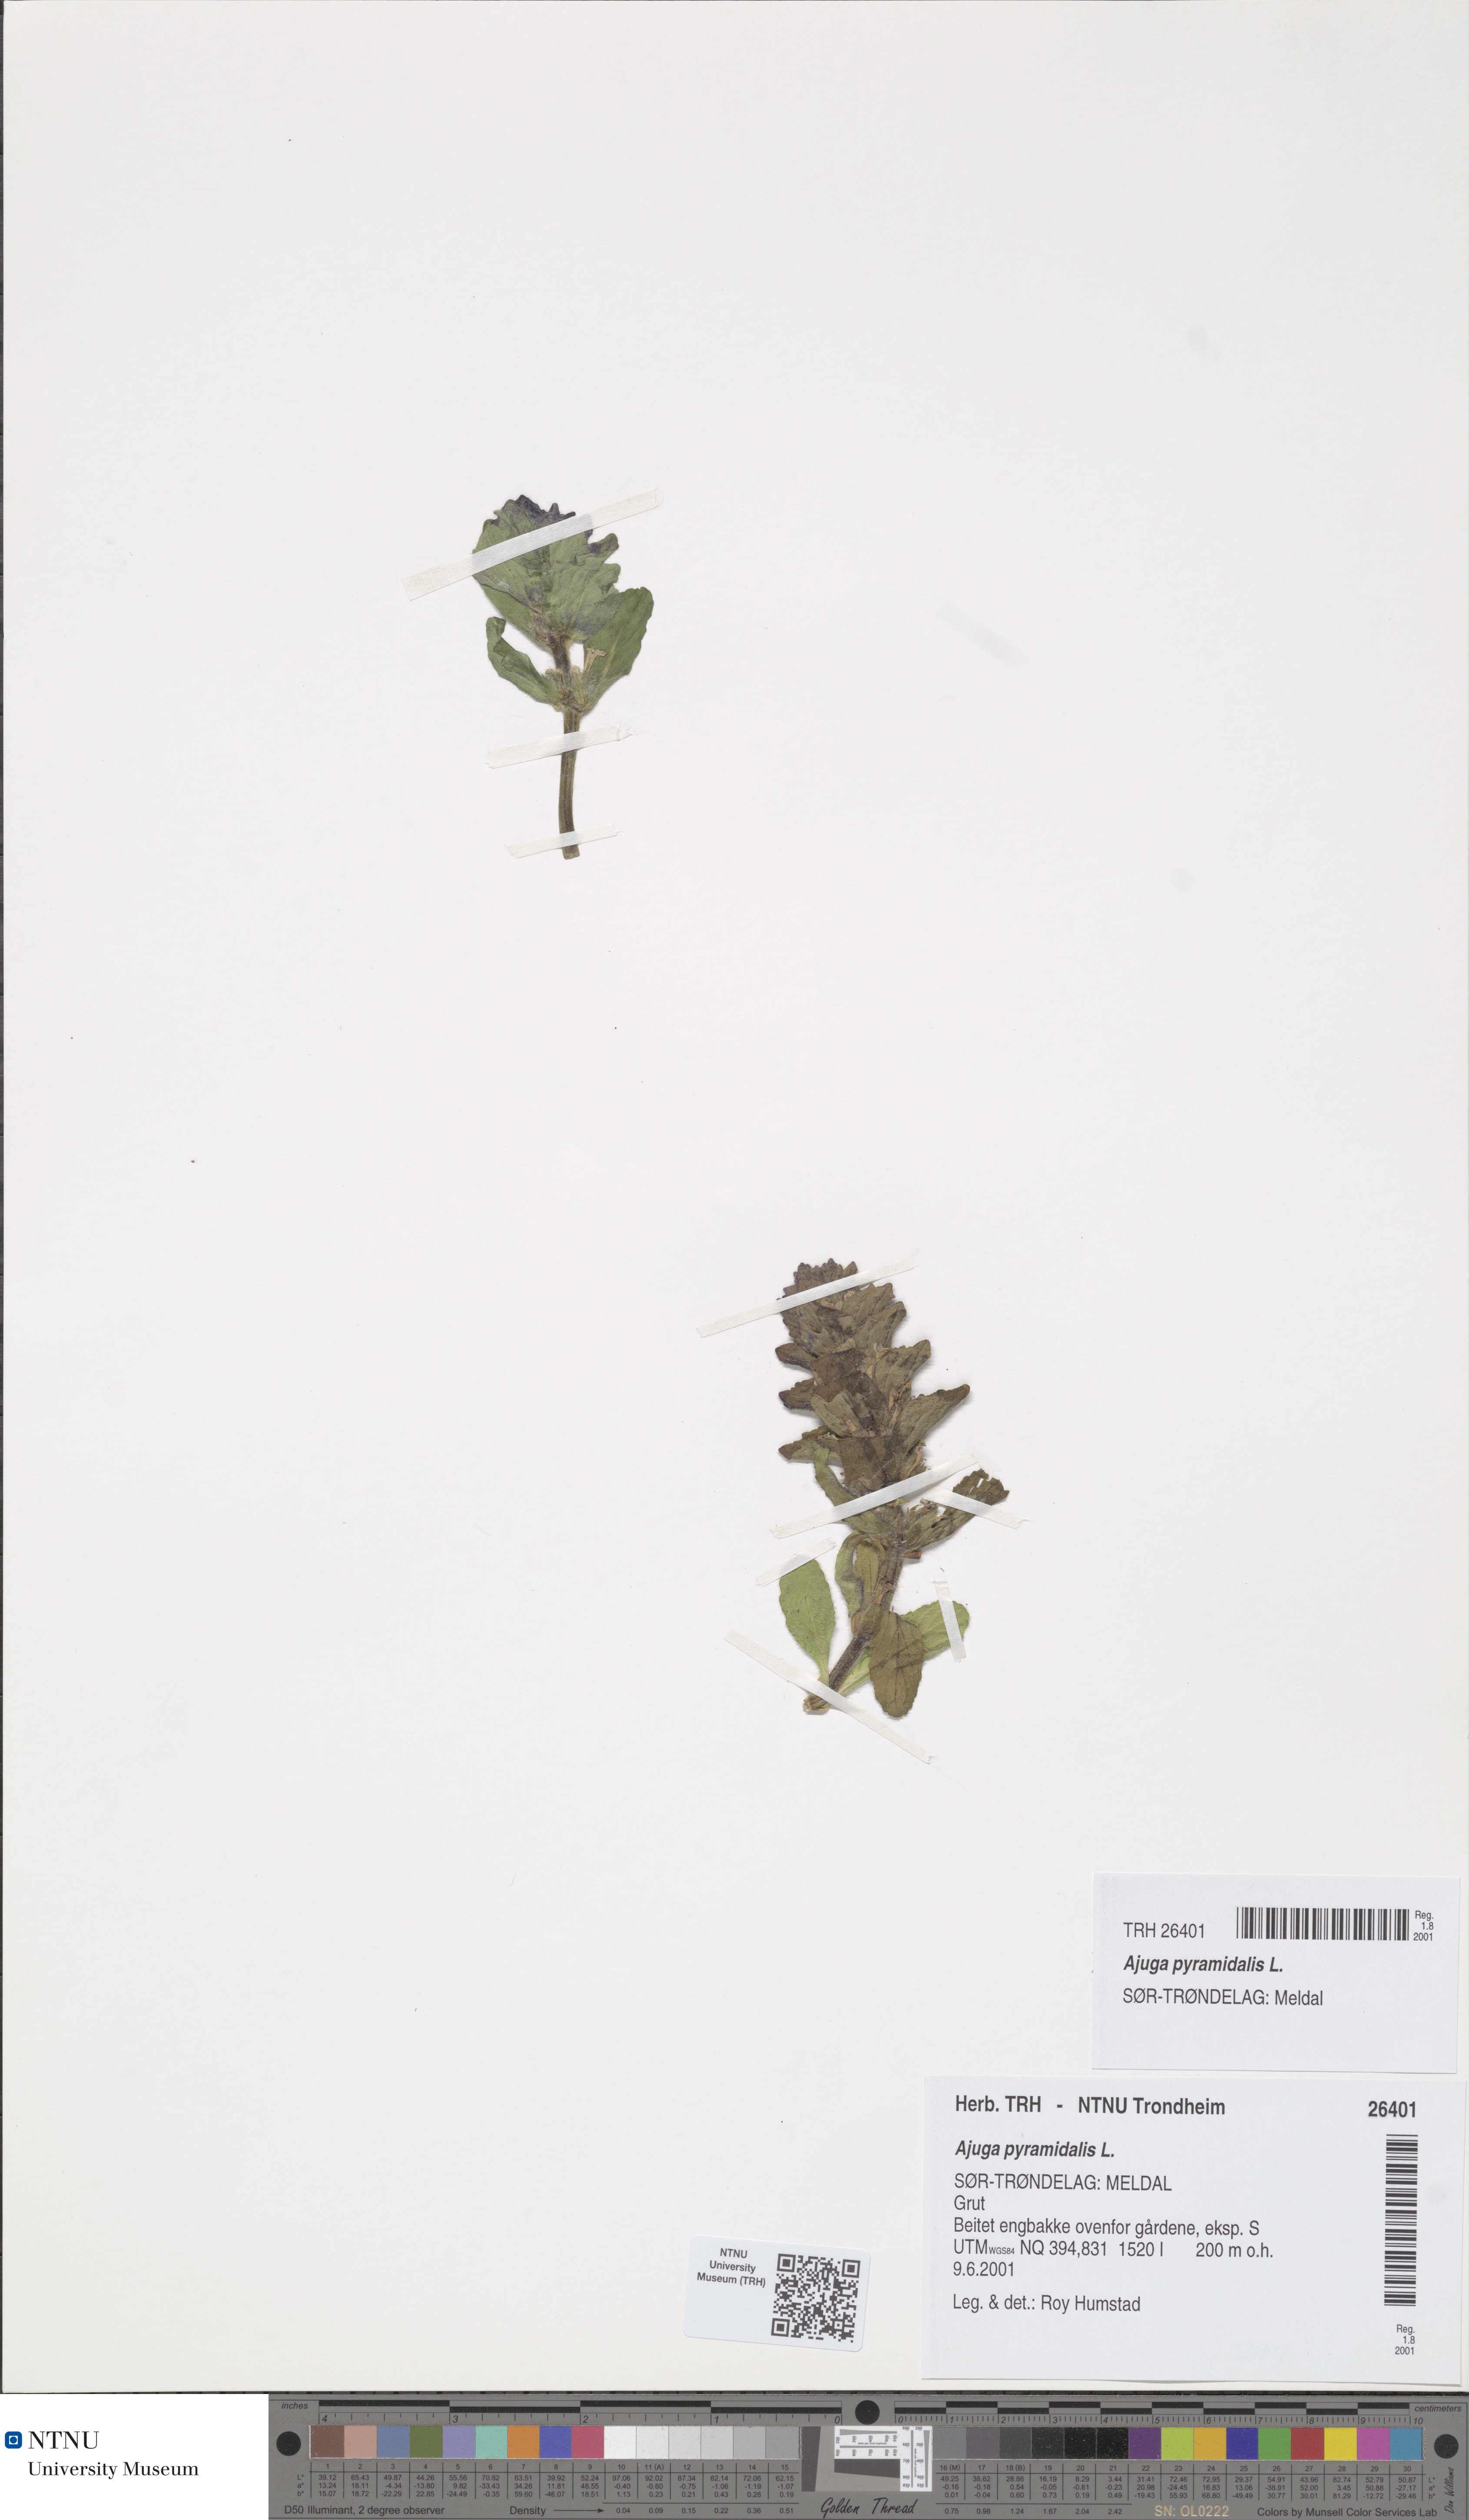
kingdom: Plantae
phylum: Tracheophyta
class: Magnoliopsida
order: Lamiales
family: Lamiaceae
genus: Ajuga
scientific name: Ajuga pyramidalis
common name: Pyramid bugle
